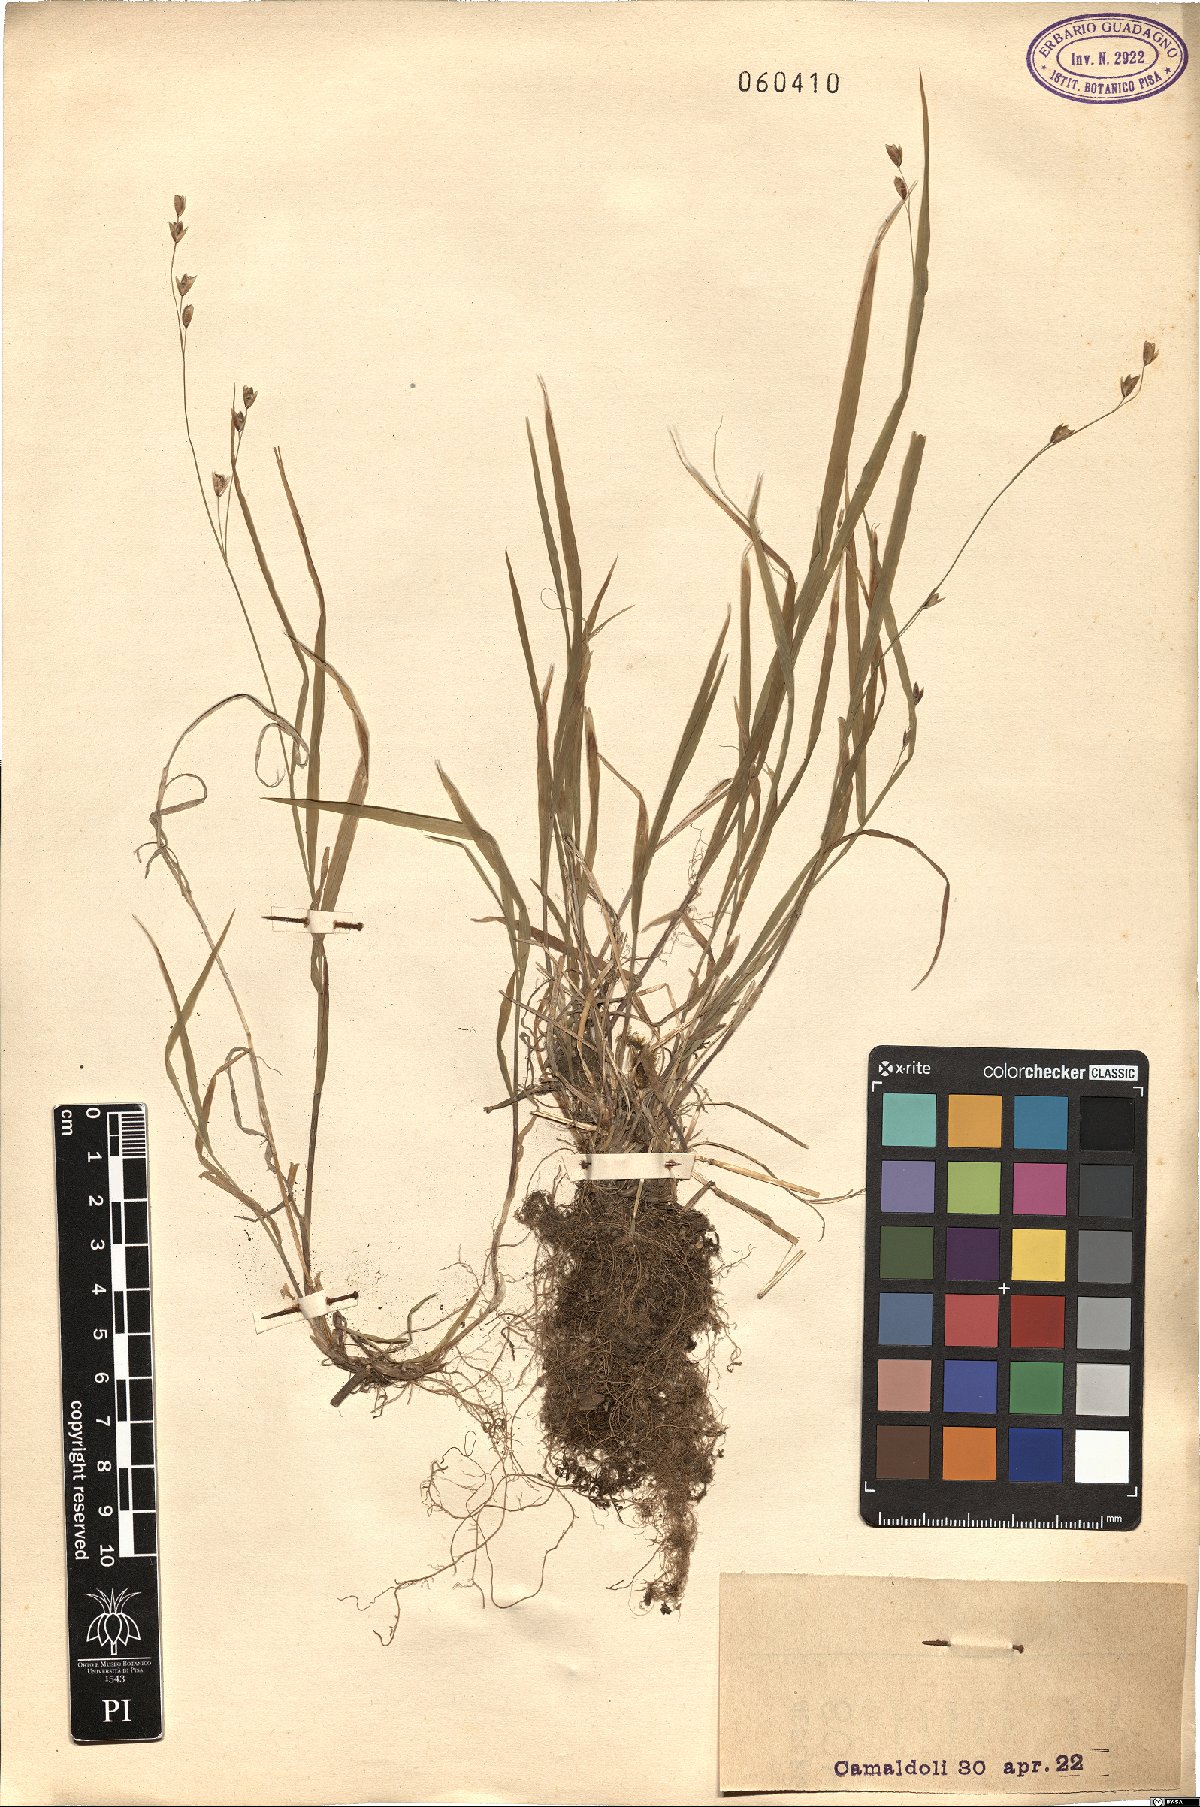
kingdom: Plantae
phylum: Tracheophyta
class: Liliopsida
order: Poales
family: Poaceae
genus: Melica
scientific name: Melica uniflora
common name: Wood melick
